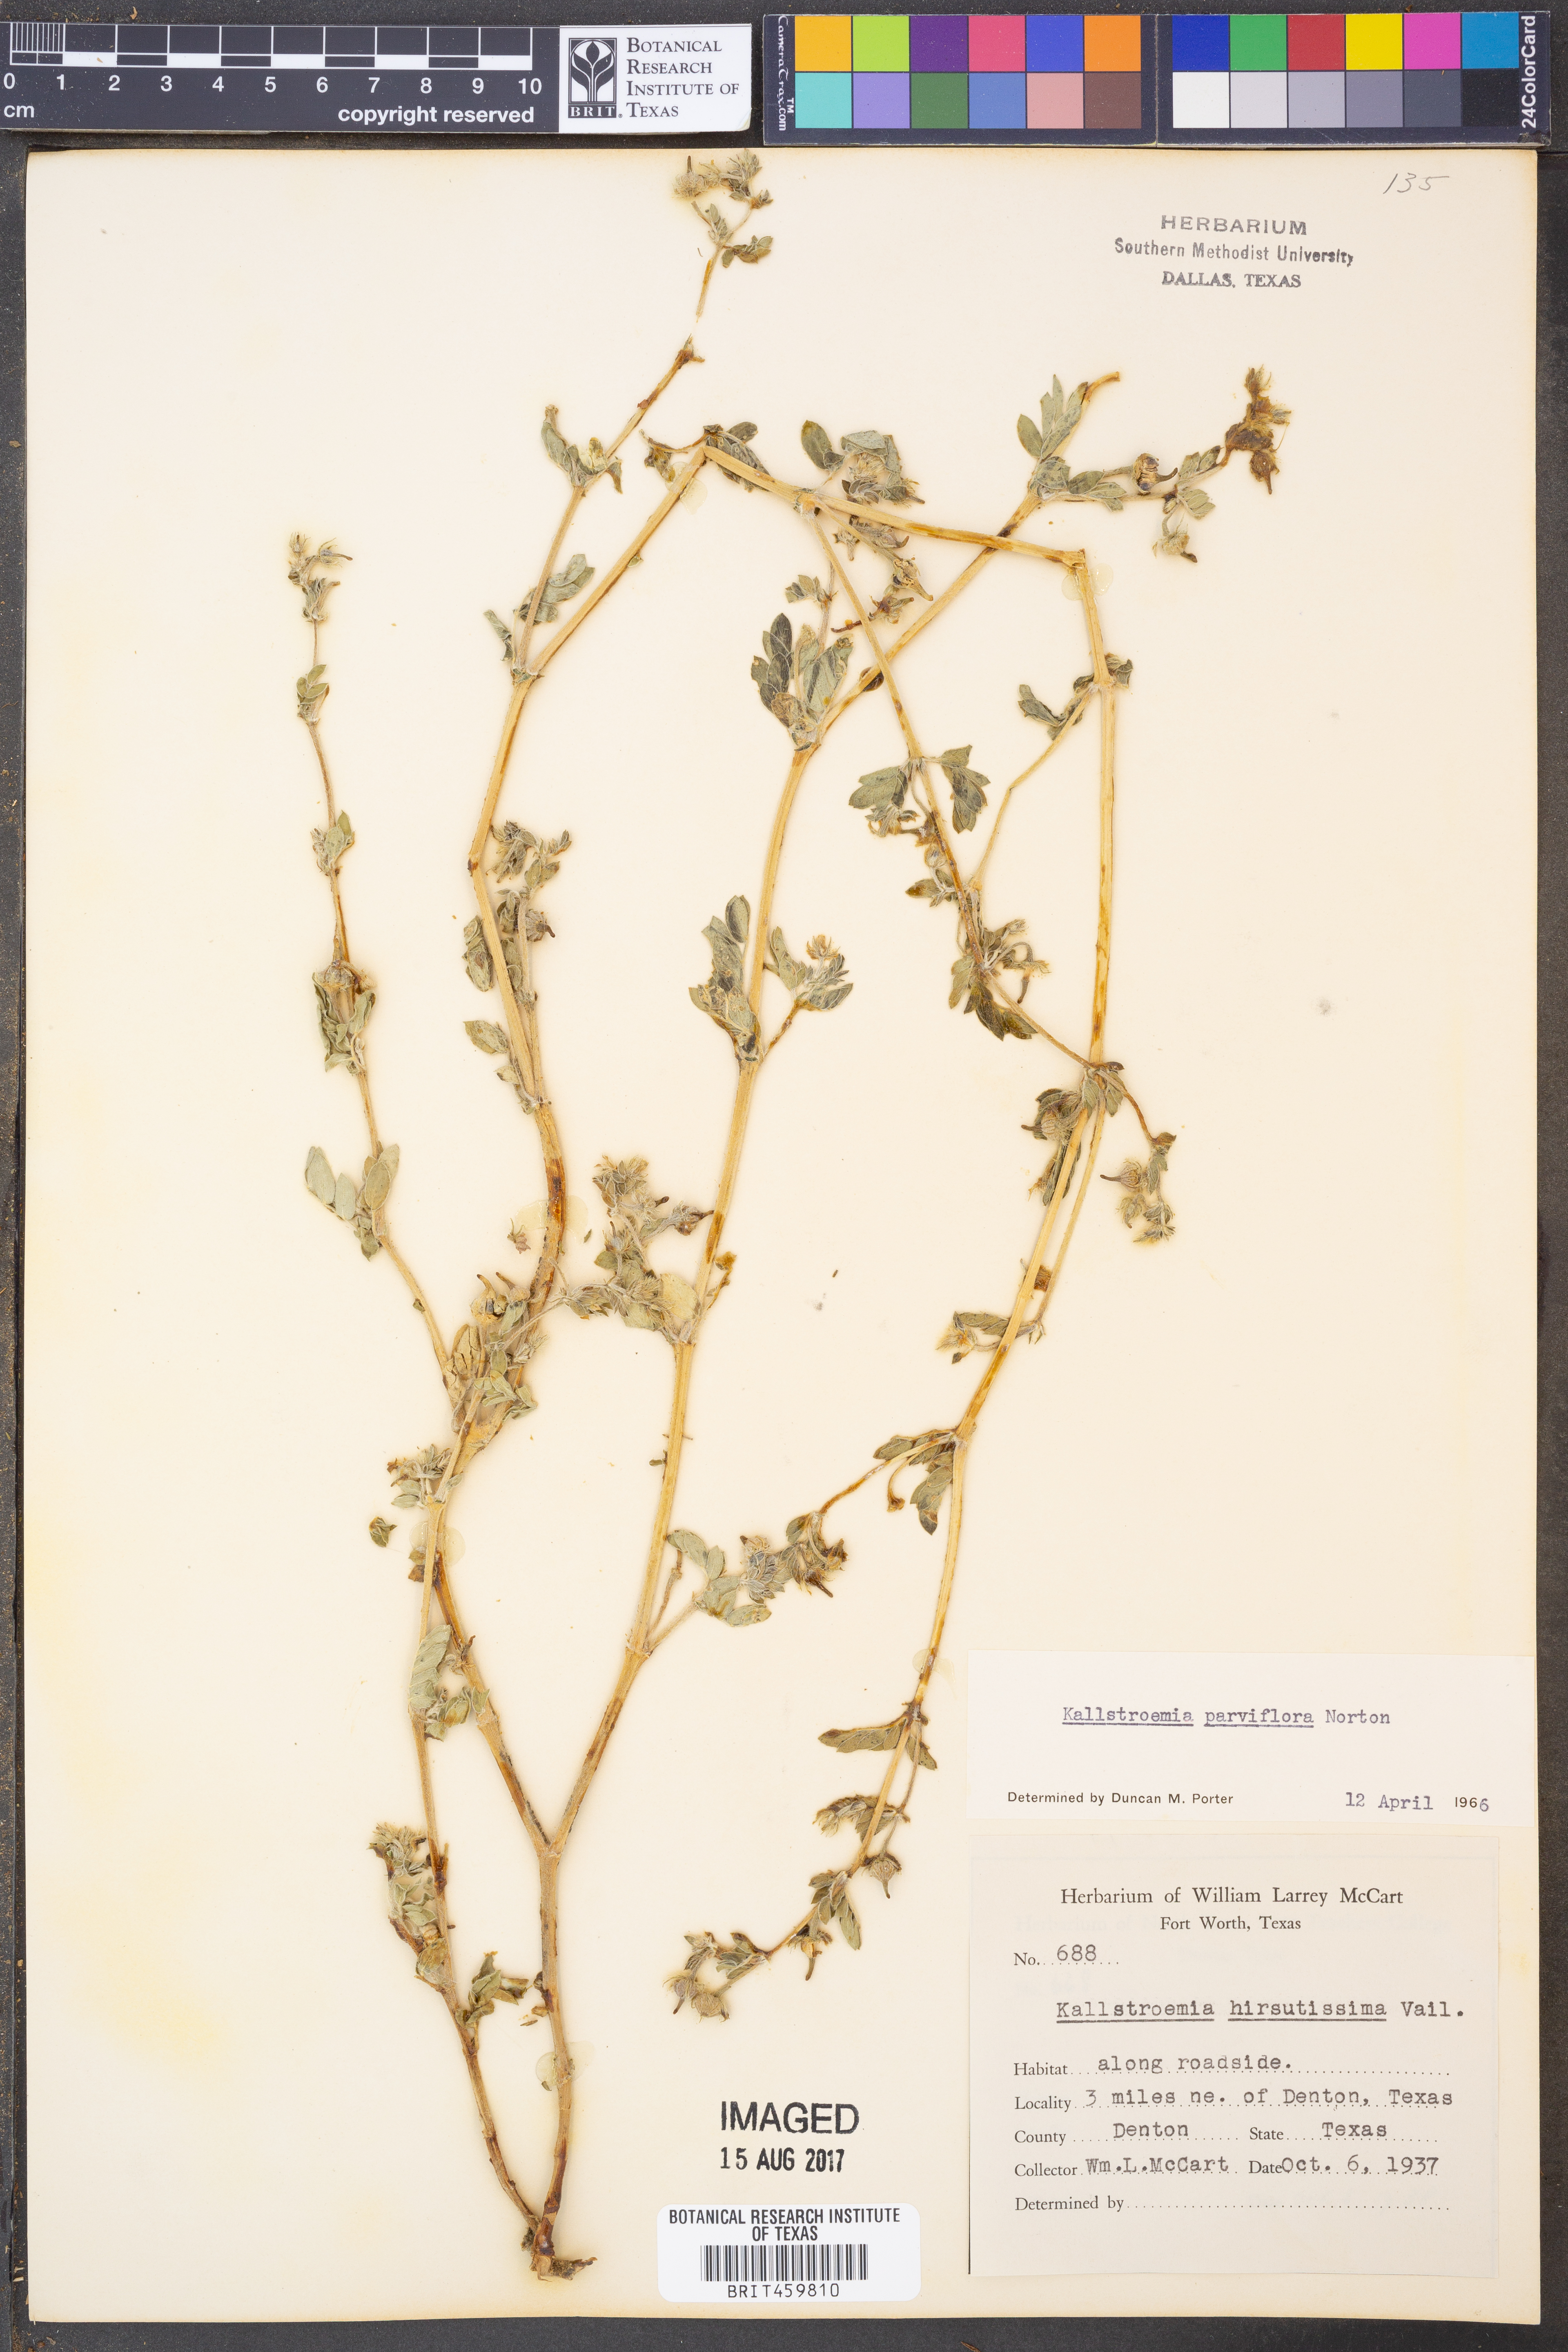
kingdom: Plantae
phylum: Tracheophyta
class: Magnoliopsida
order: Zygophyllales
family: Zygophyllaceae
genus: Kallstroemia
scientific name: Kallstroemia parviflora
